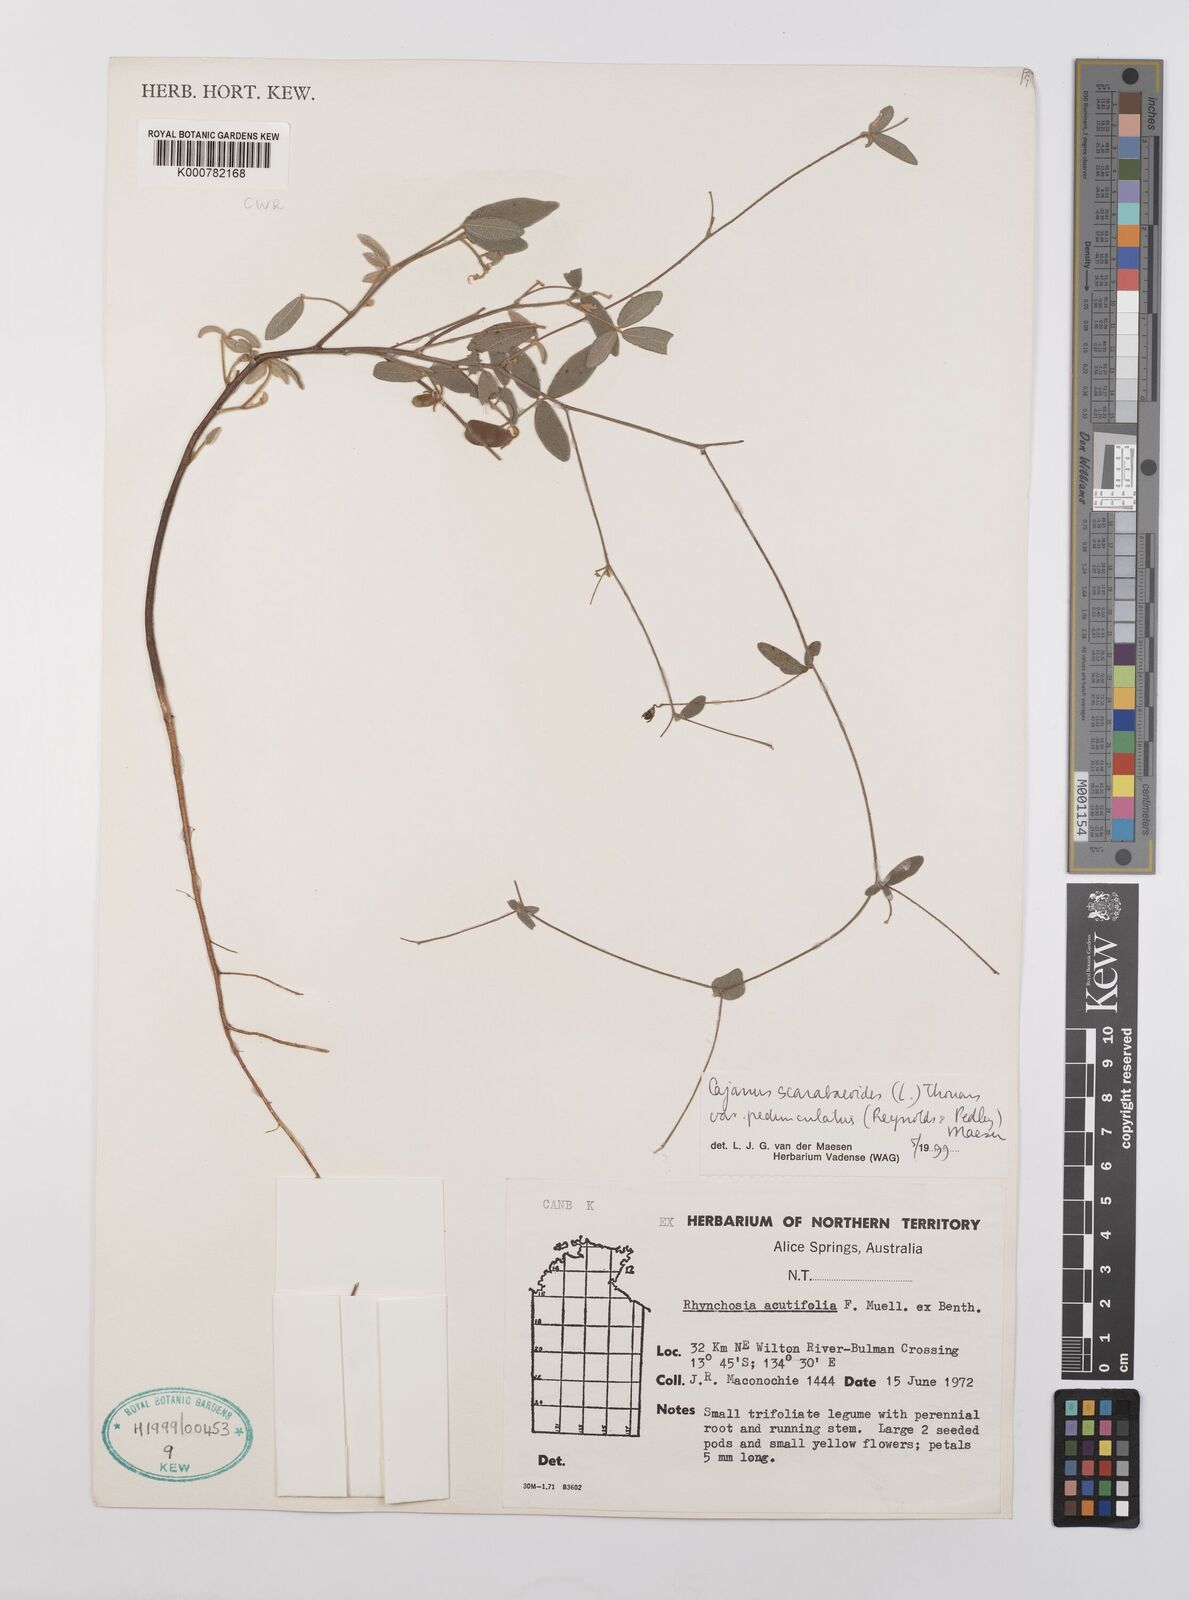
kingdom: Plantae
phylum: Tracheophyta
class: Magnoliopsida
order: Fabales
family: Fabaceae
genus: Cajanus
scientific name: Cajanus scarabaeoides
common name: Showy pigeonpea
